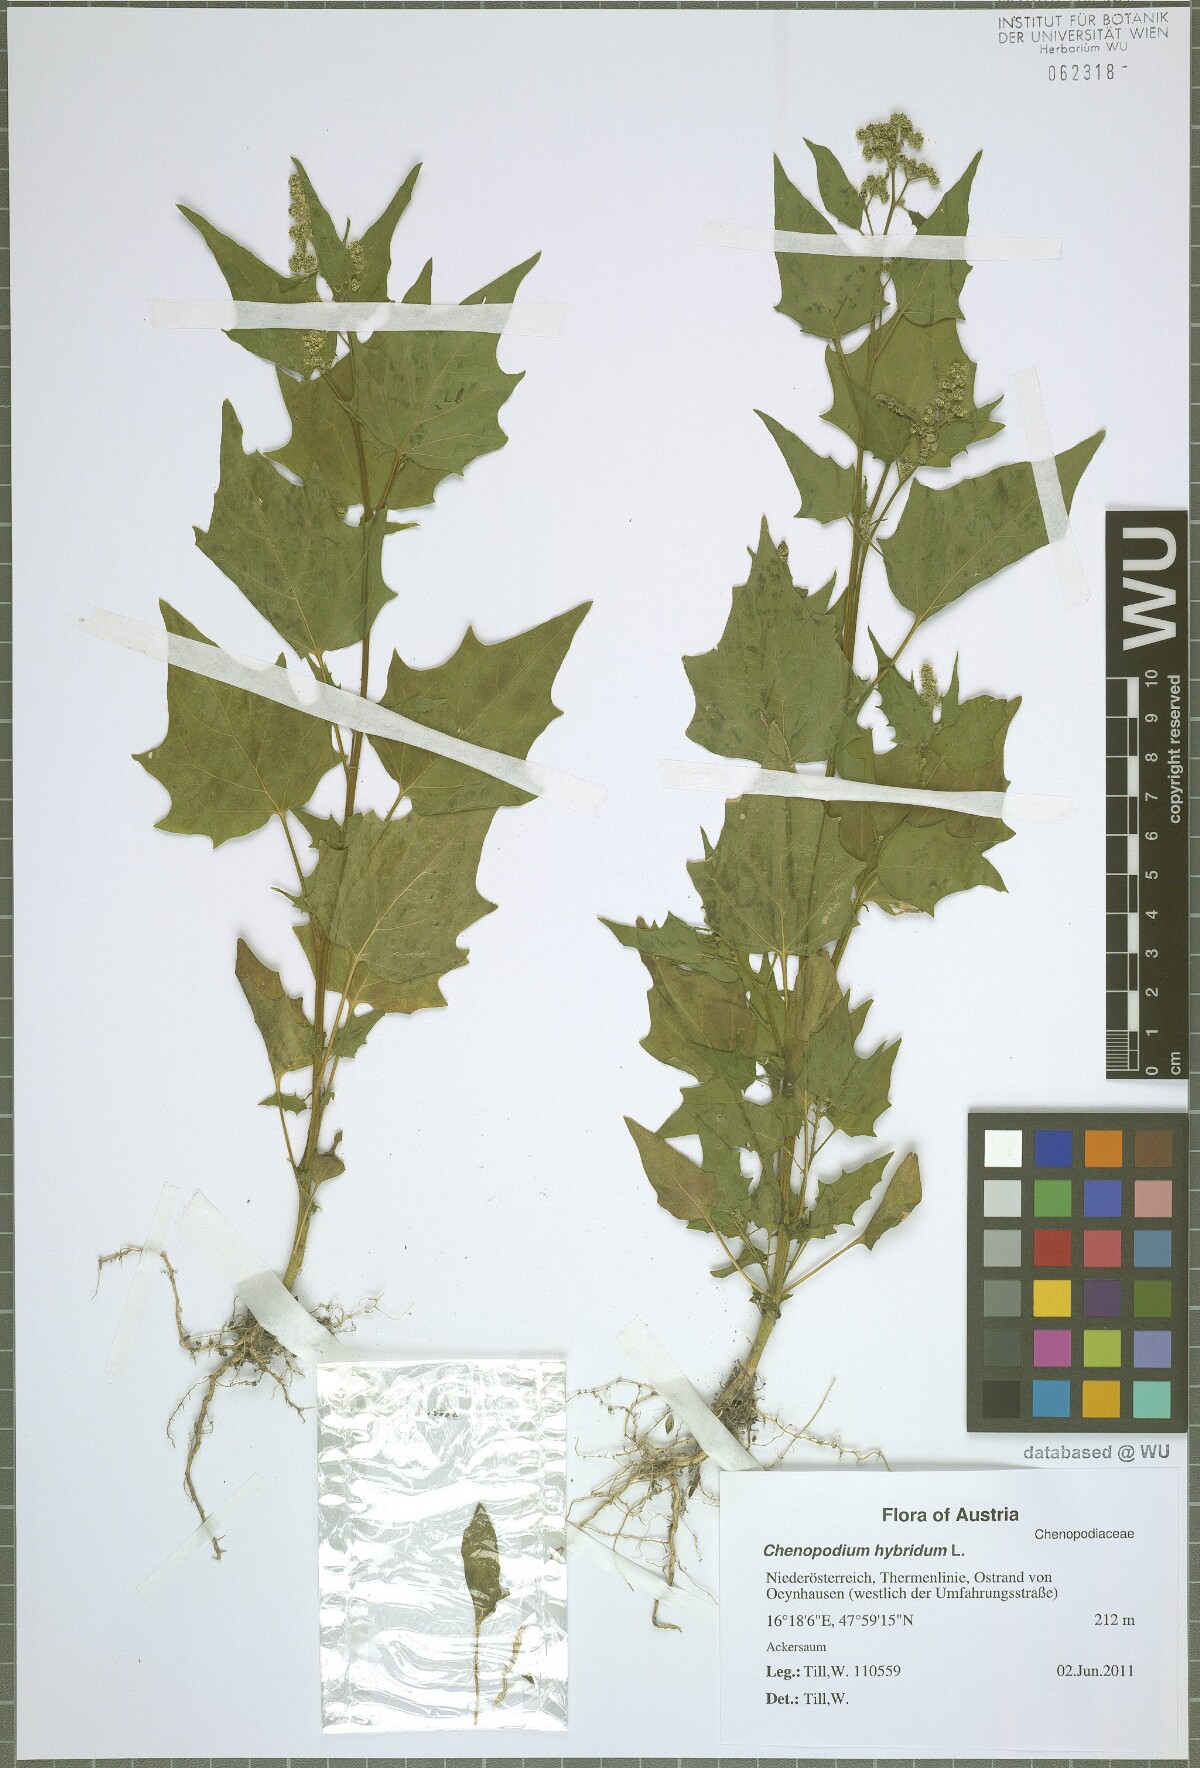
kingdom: Plantae
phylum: Tracheophyta
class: Magnoliopsida
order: Caryophyllales
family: Amaranthaceae
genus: Chenopodiastrum
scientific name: Chenopodiastrum hybridum
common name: Mapleleaf goosefoot
